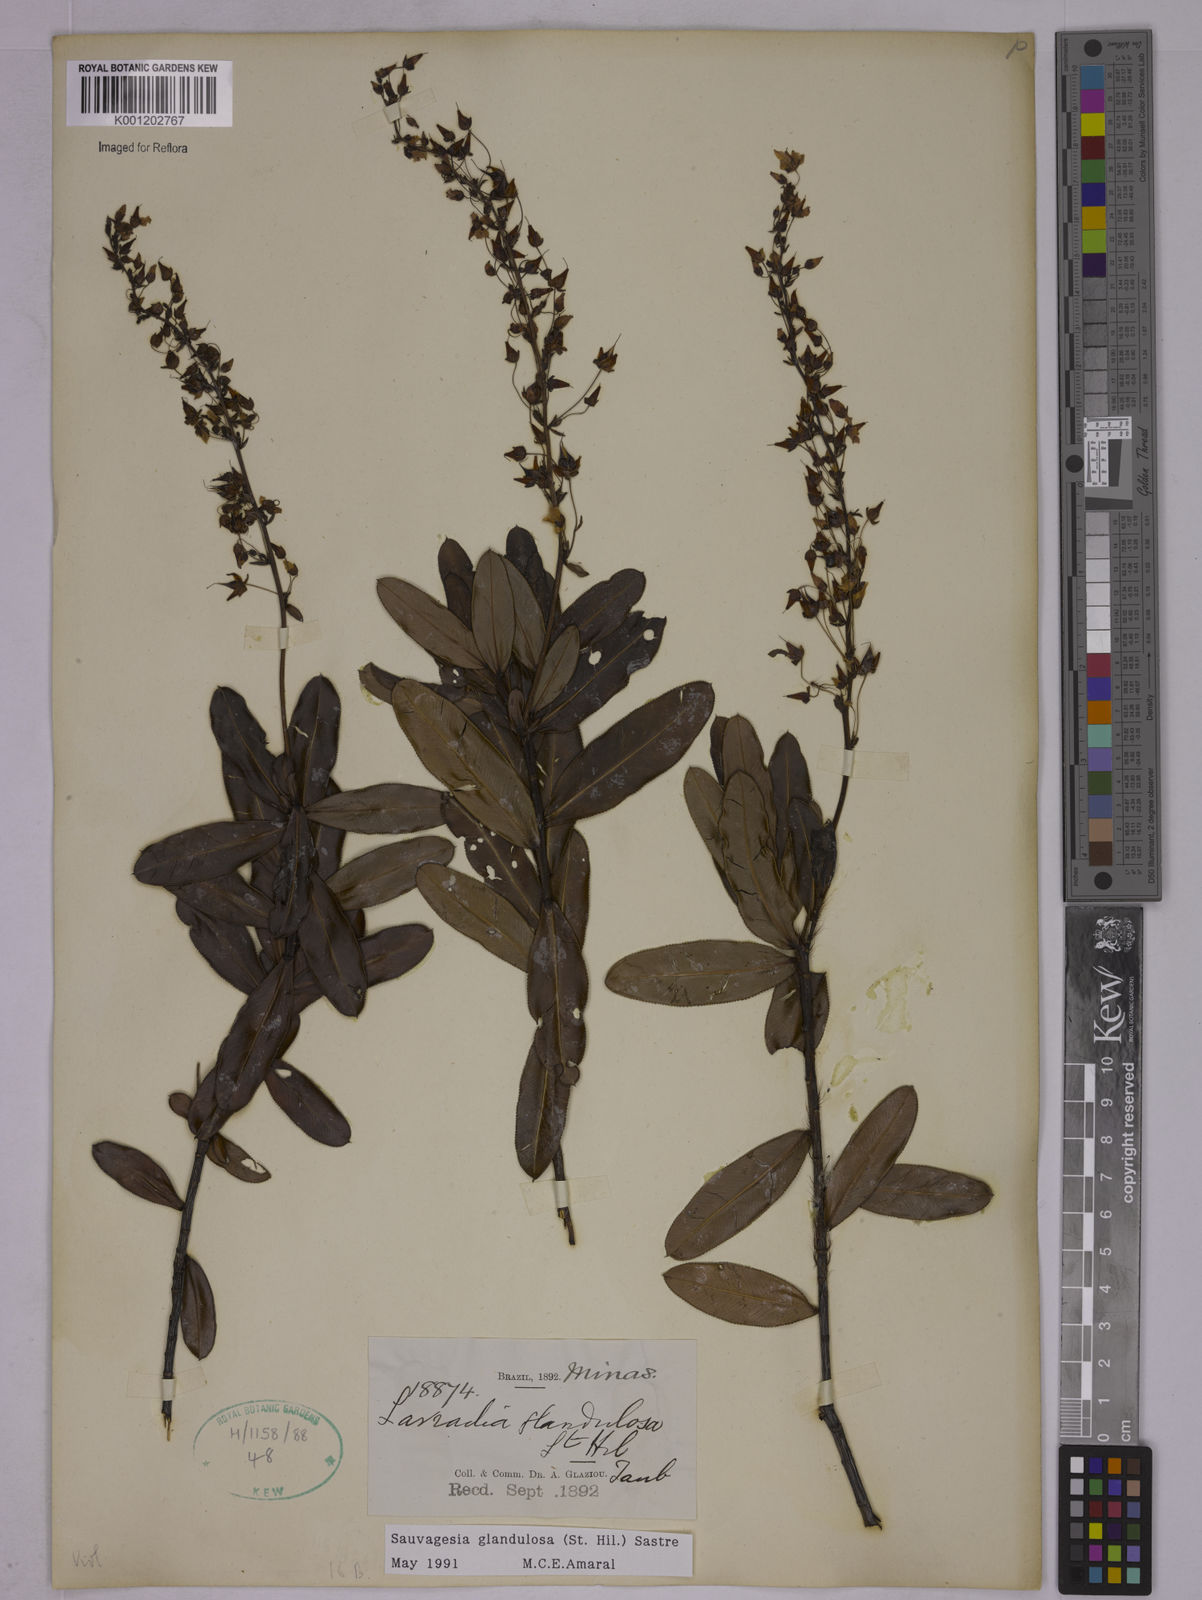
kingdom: Plantae
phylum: Tracheophyta
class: Magnoliopsida
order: Malpighiales
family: Ochnaceae
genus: Sauvagesia
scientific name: Sauvagesia elegantissima
